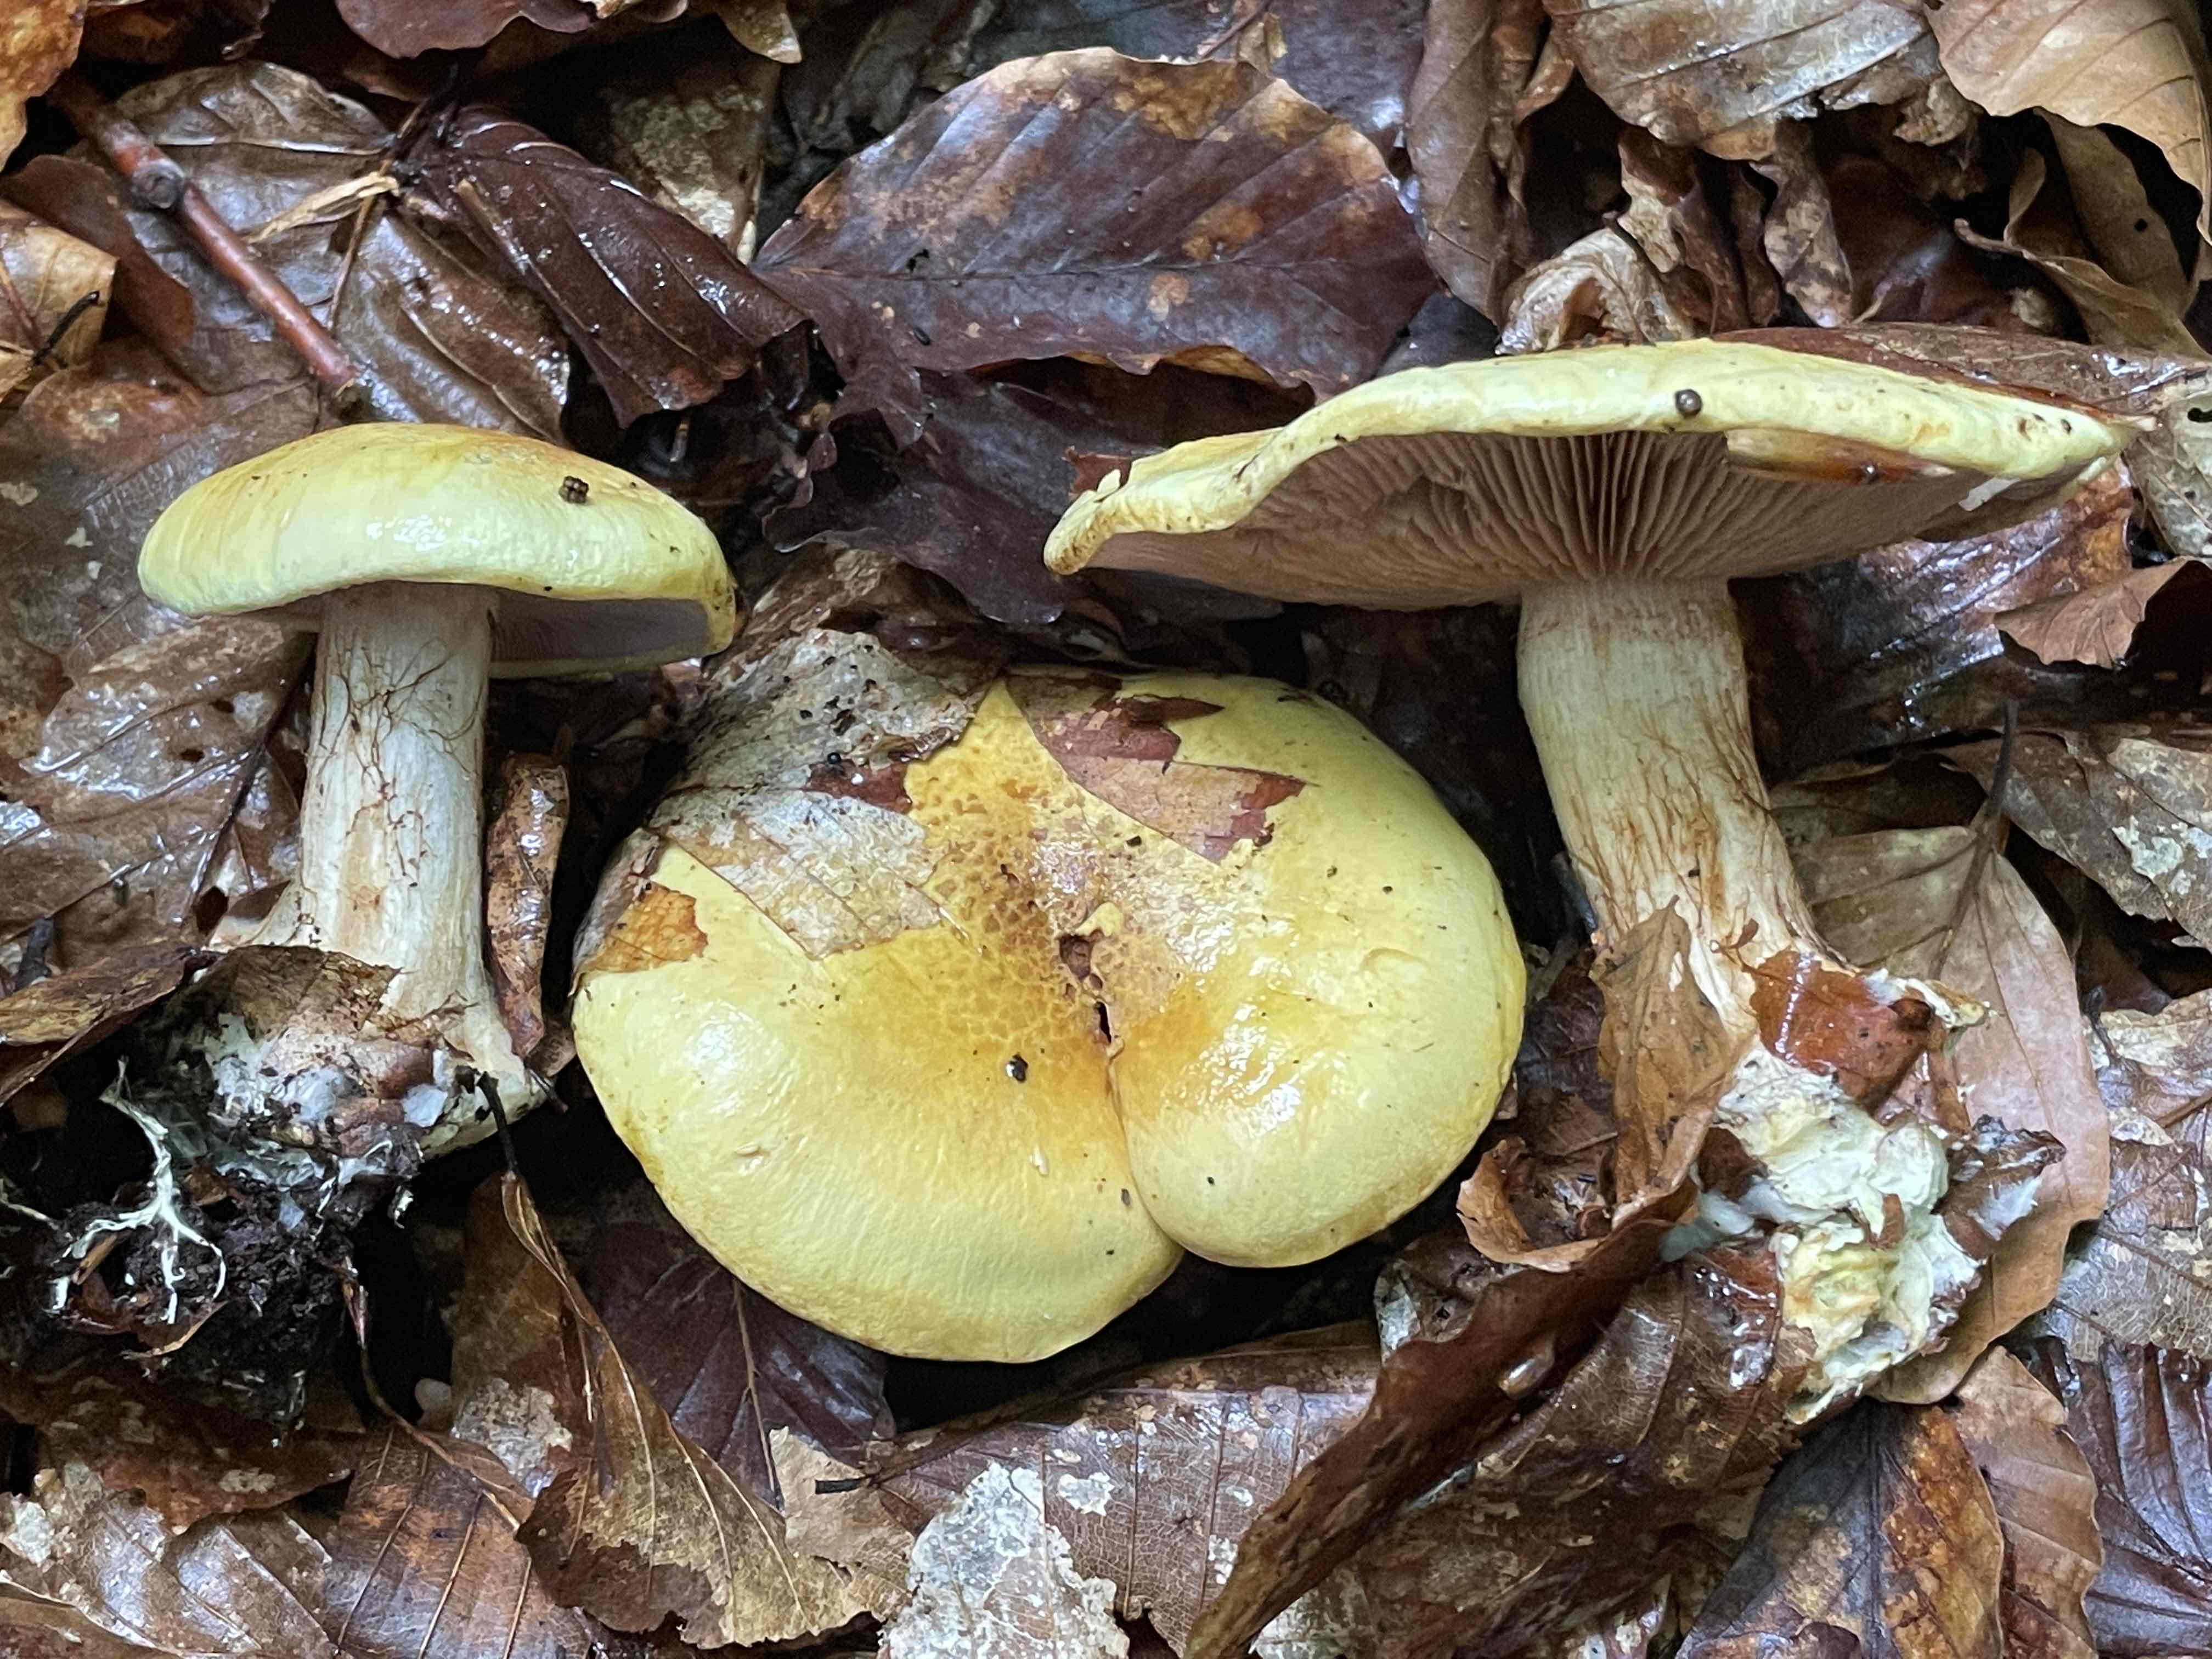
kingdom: Fungi
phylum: Basidiomycota
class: Agaricomycetes
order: Agaricales
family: Cortinariaceae
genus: Calonarius
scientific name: Calonarius callochrous
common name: lillabladet slørhat
